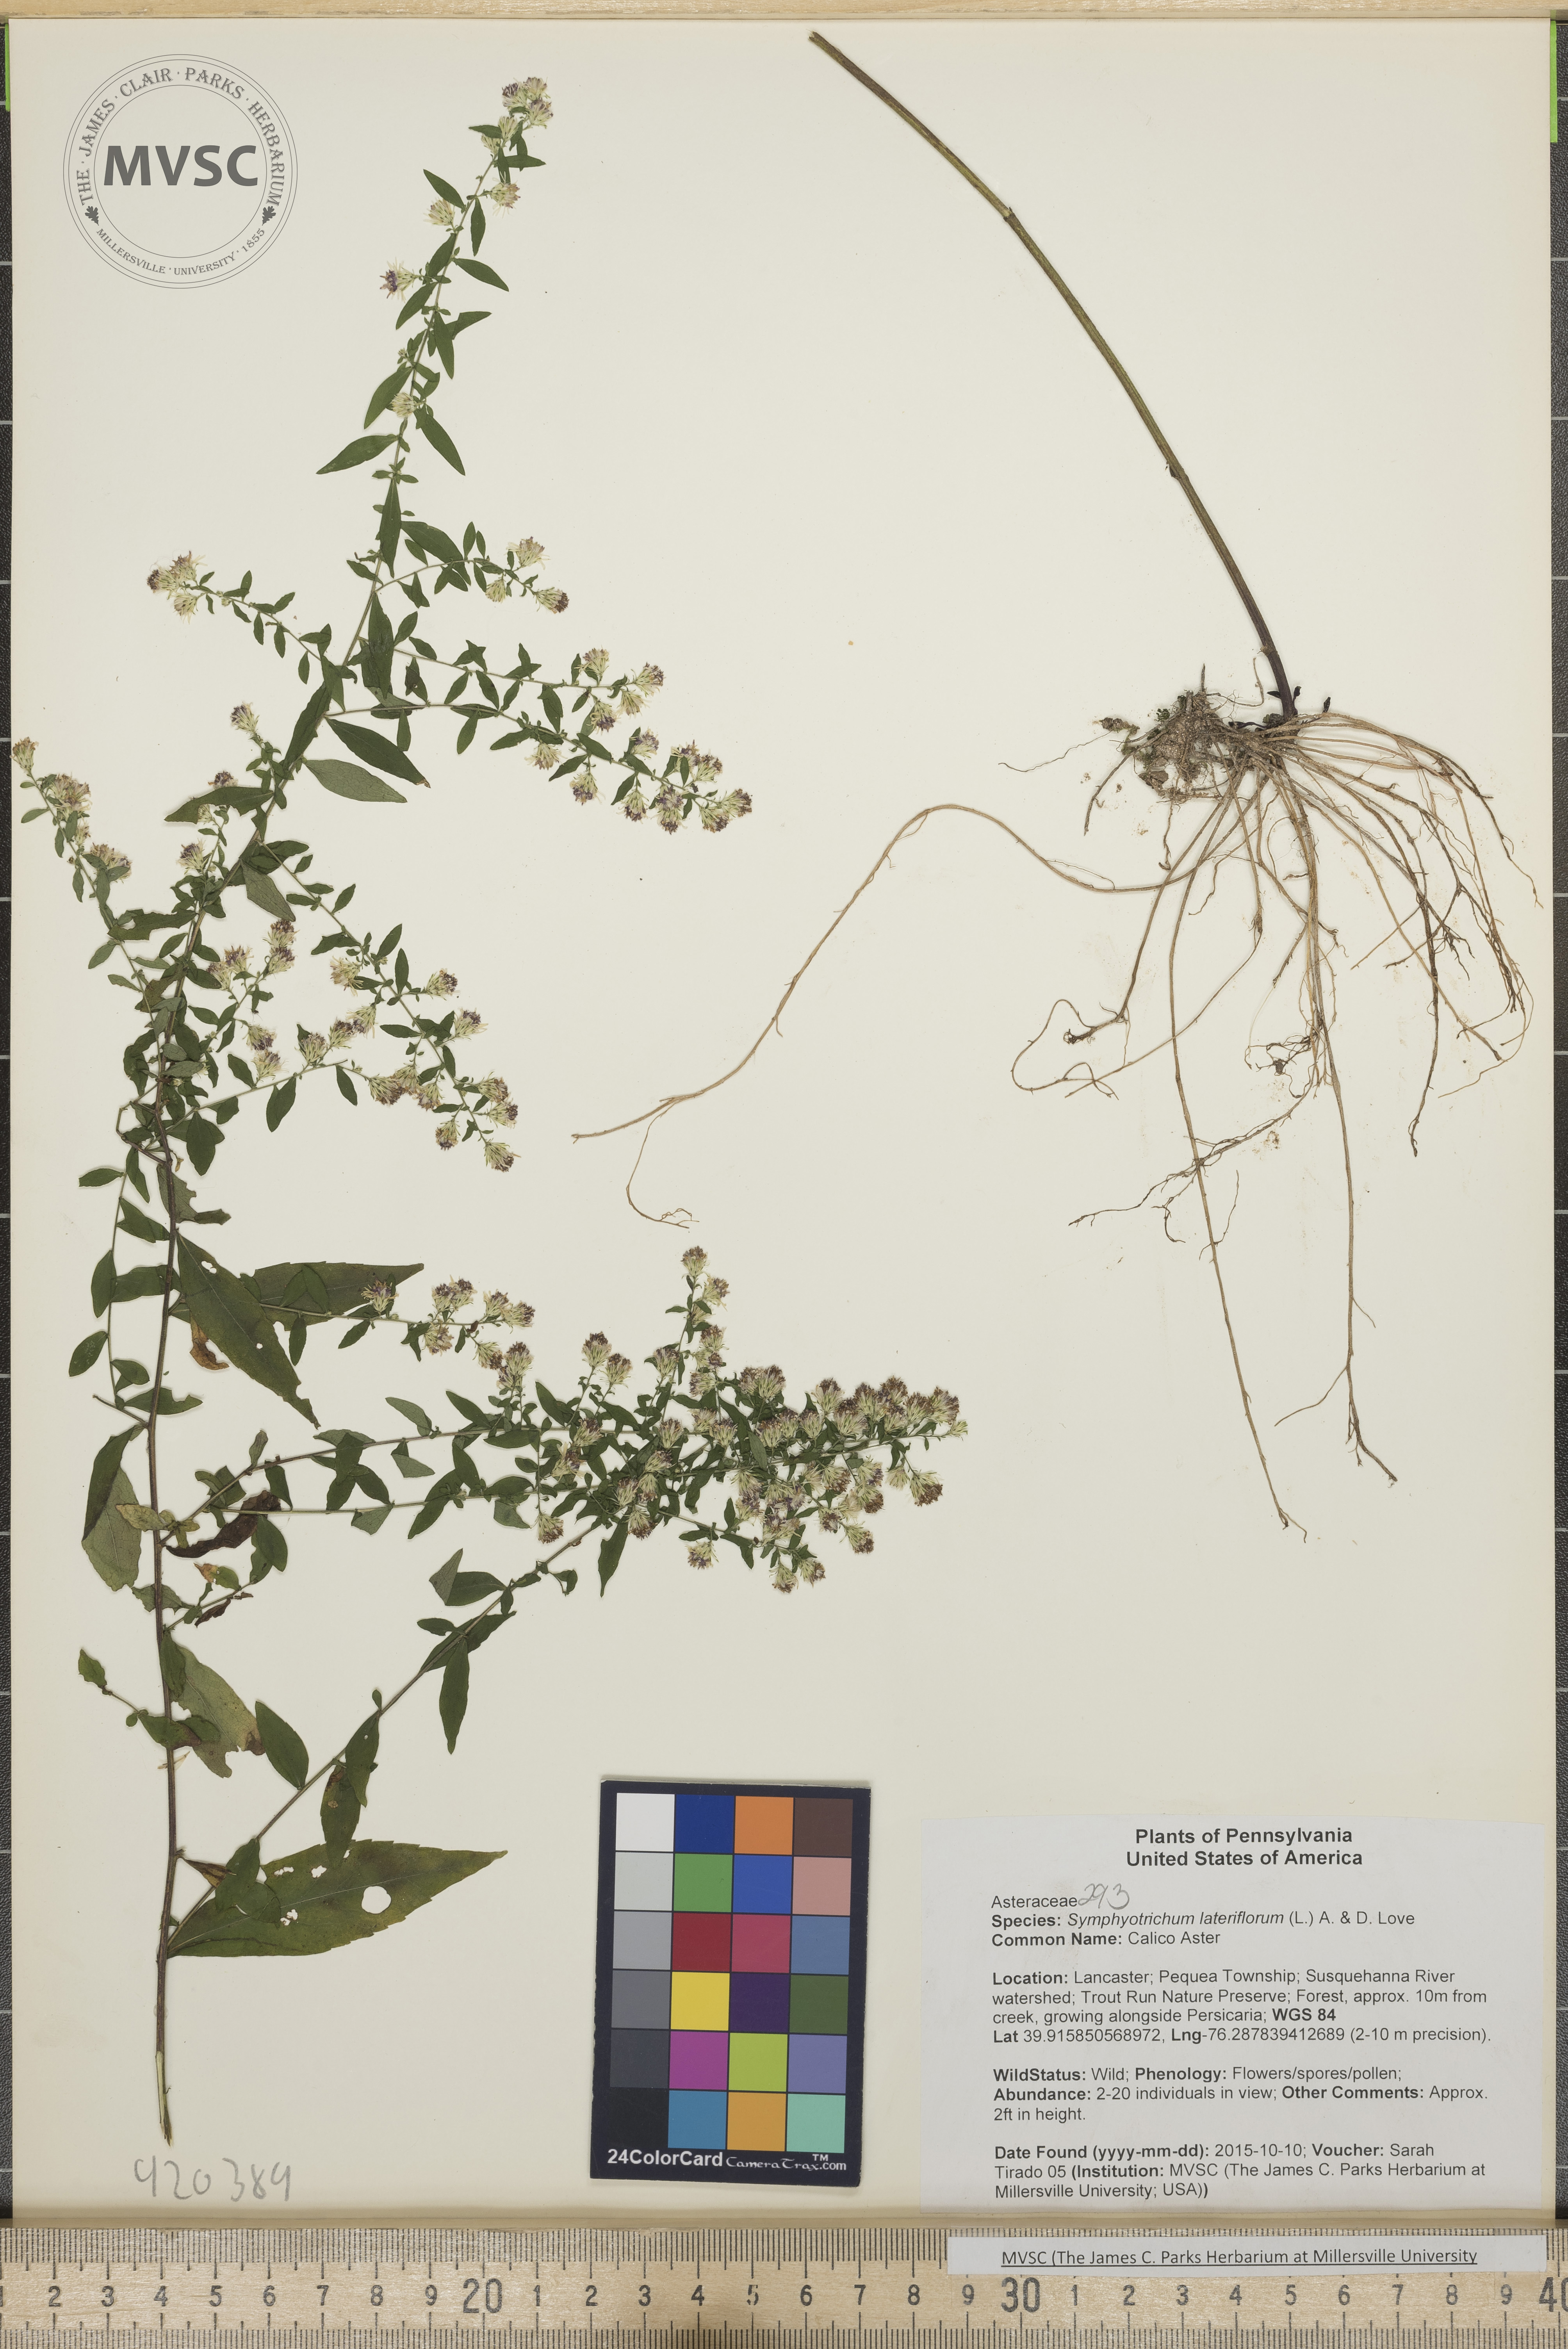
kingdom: Plantae
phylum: Tracheophyta
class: Magnoliopsida
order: Asterales
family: Asteraceae
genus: Symphyotrichum
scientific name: Symphyotrichum lateriflorum
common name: Calico Aster
